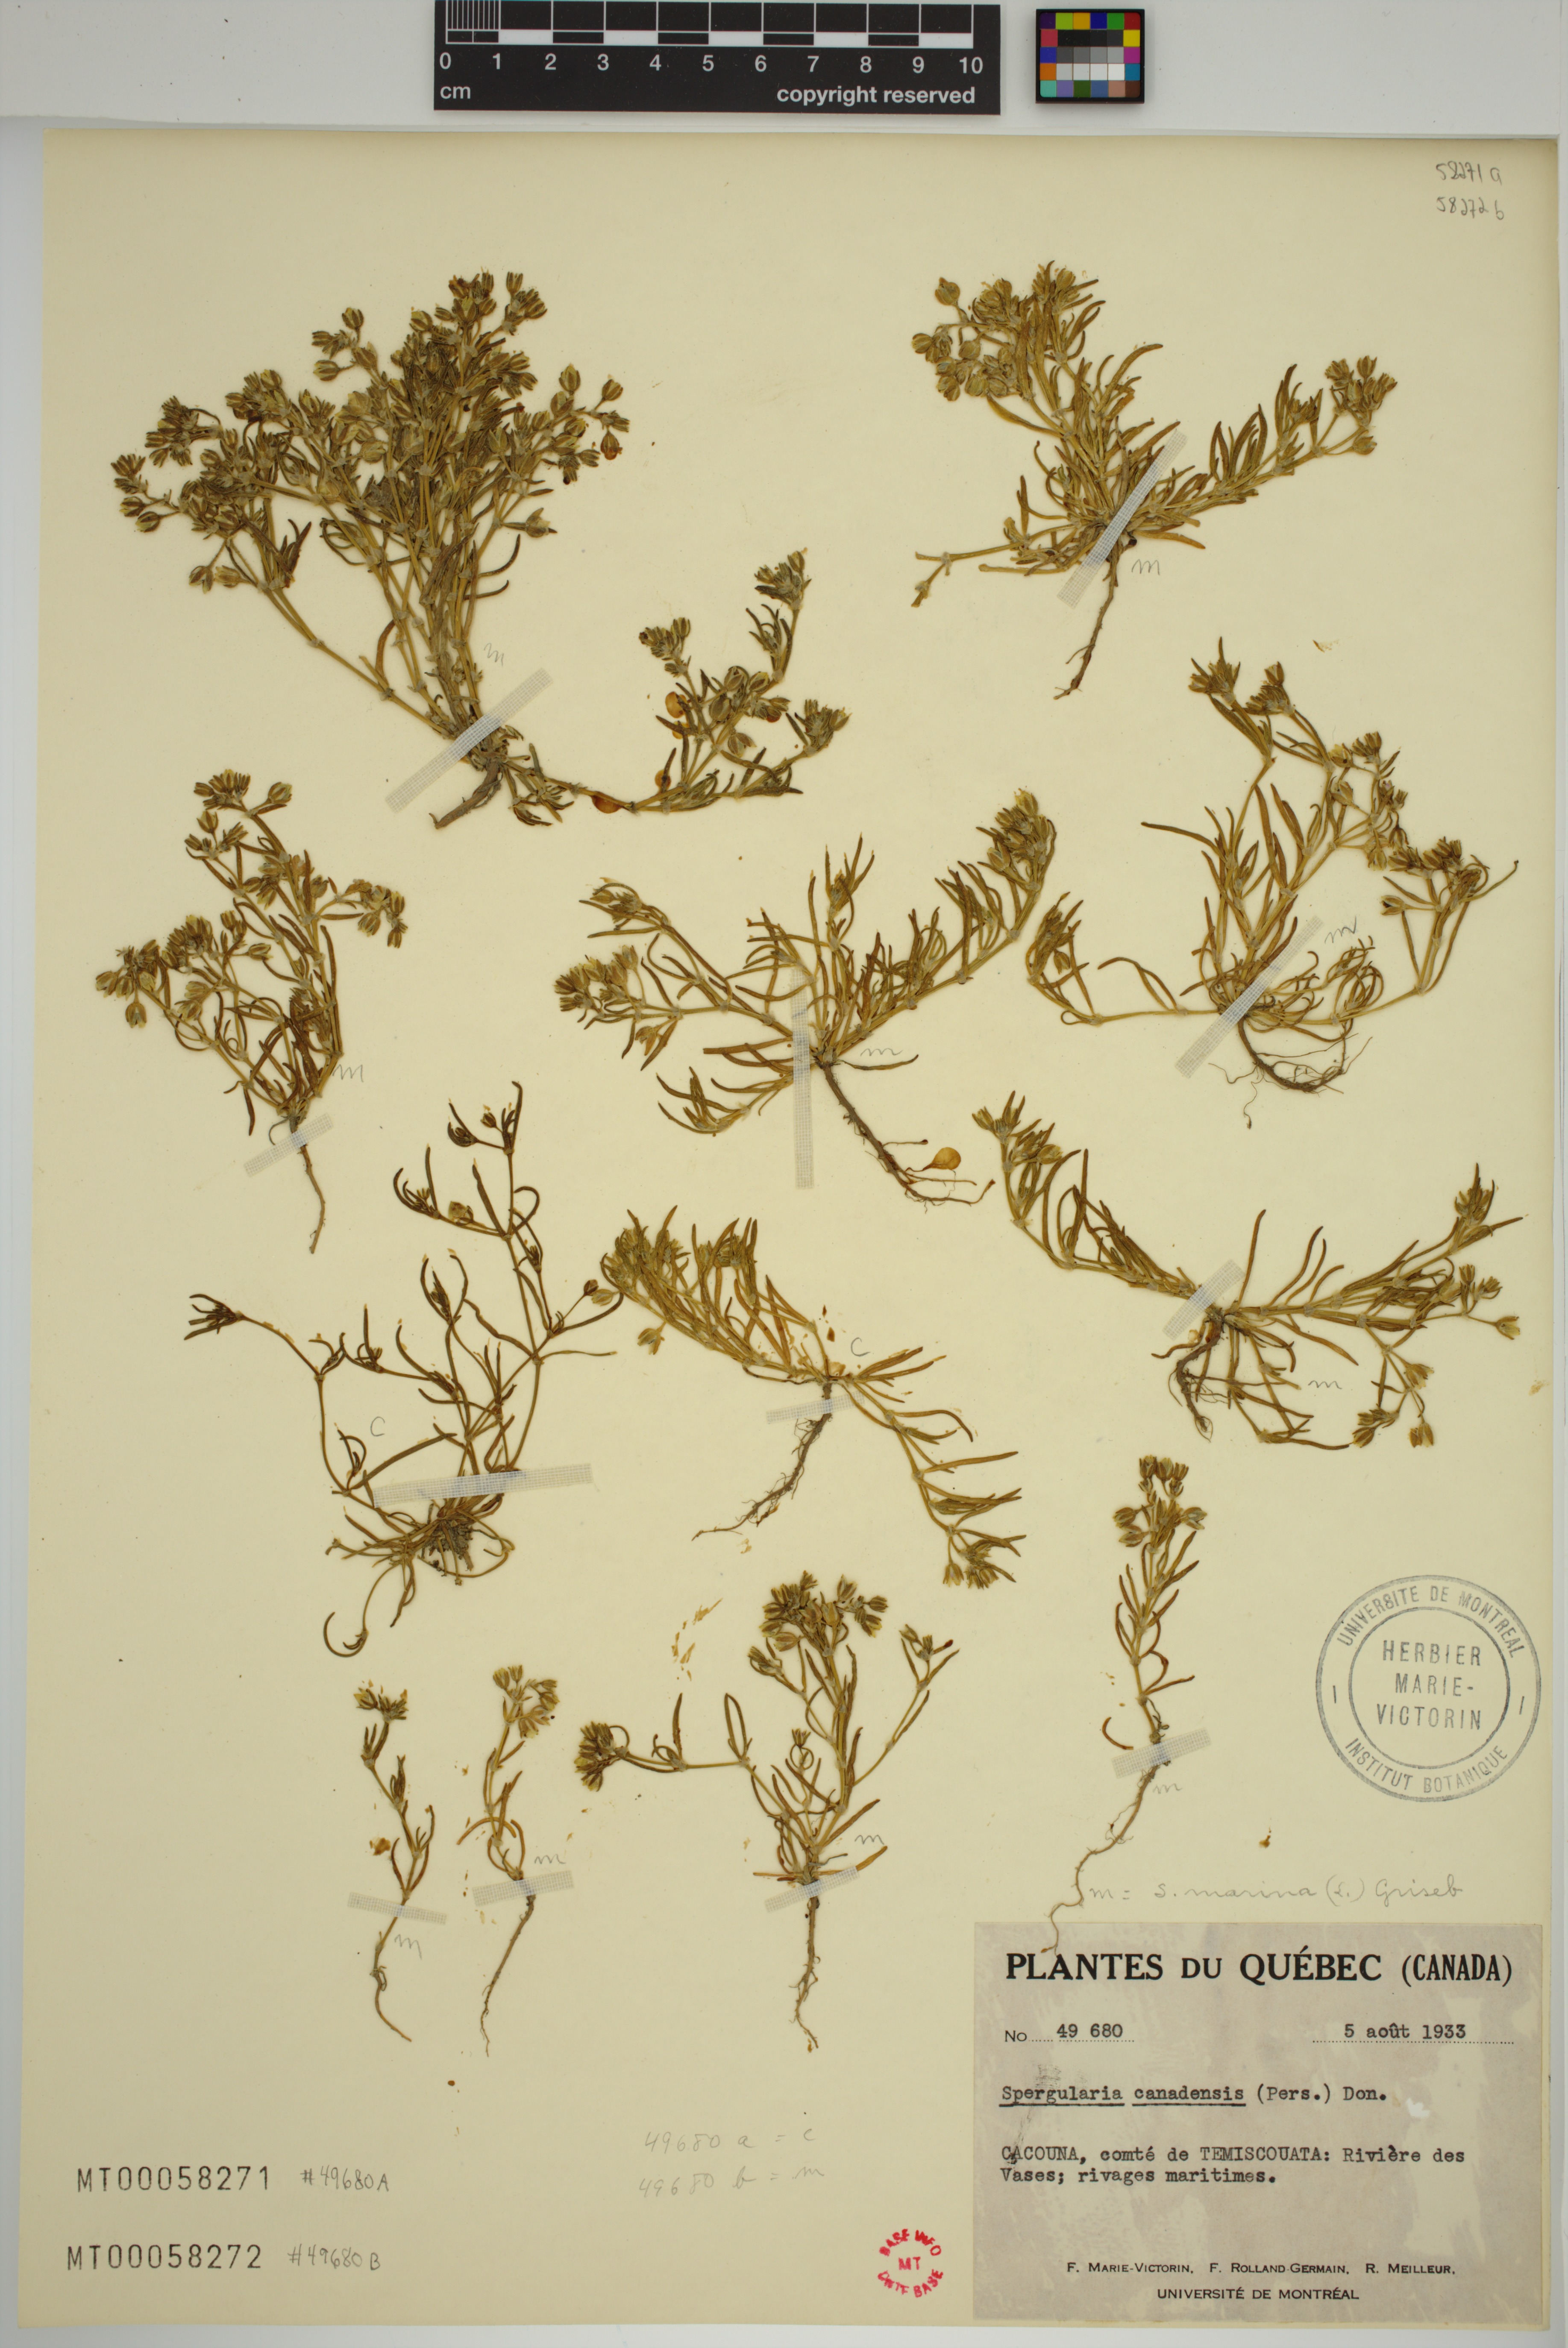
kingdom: Plantae
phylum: Tracheophyta
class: Magnoliopsida
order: Caryophyllales
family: Caryophyllaceae
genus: Spergularia
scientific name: Spergularia canadensis
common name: Canada sand-spurrey
